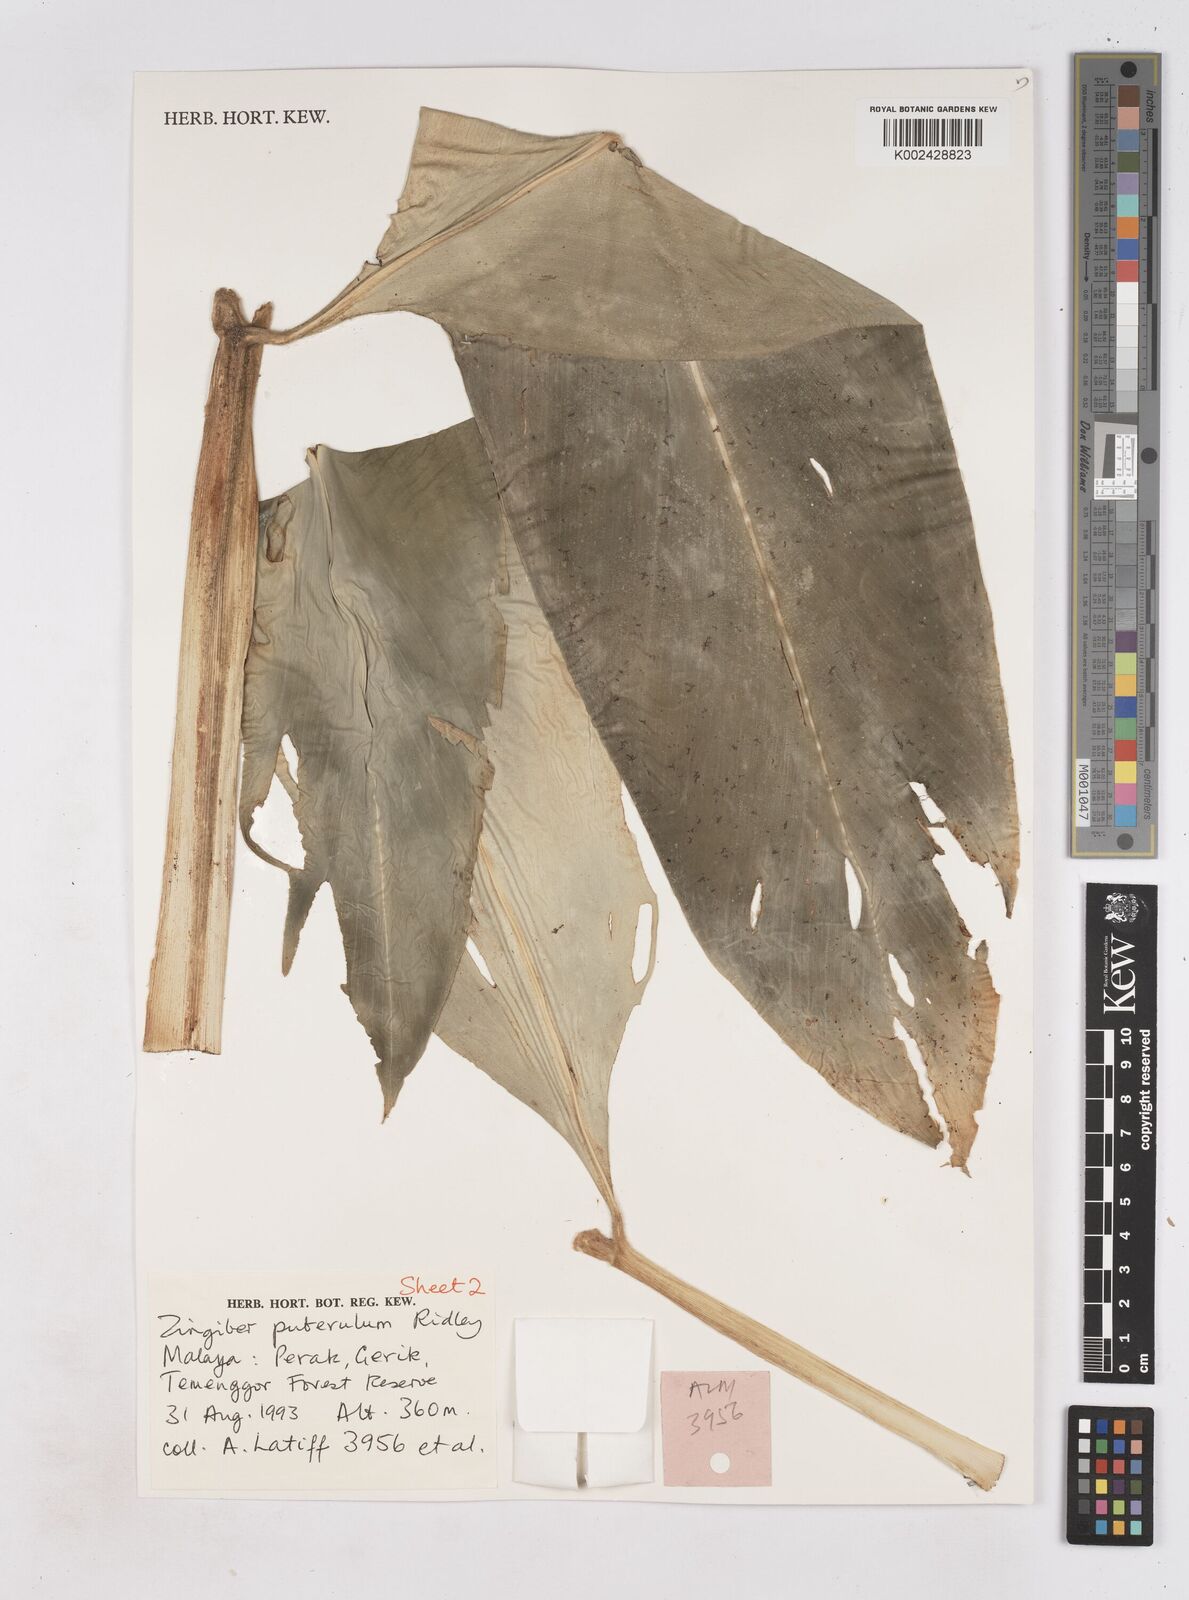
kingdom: Plantae
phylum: Tracheophyta
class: Liliopsida
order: Zingiberales
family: Zingiberaceae
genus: Zingiber
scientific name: Zingiber puberulum
